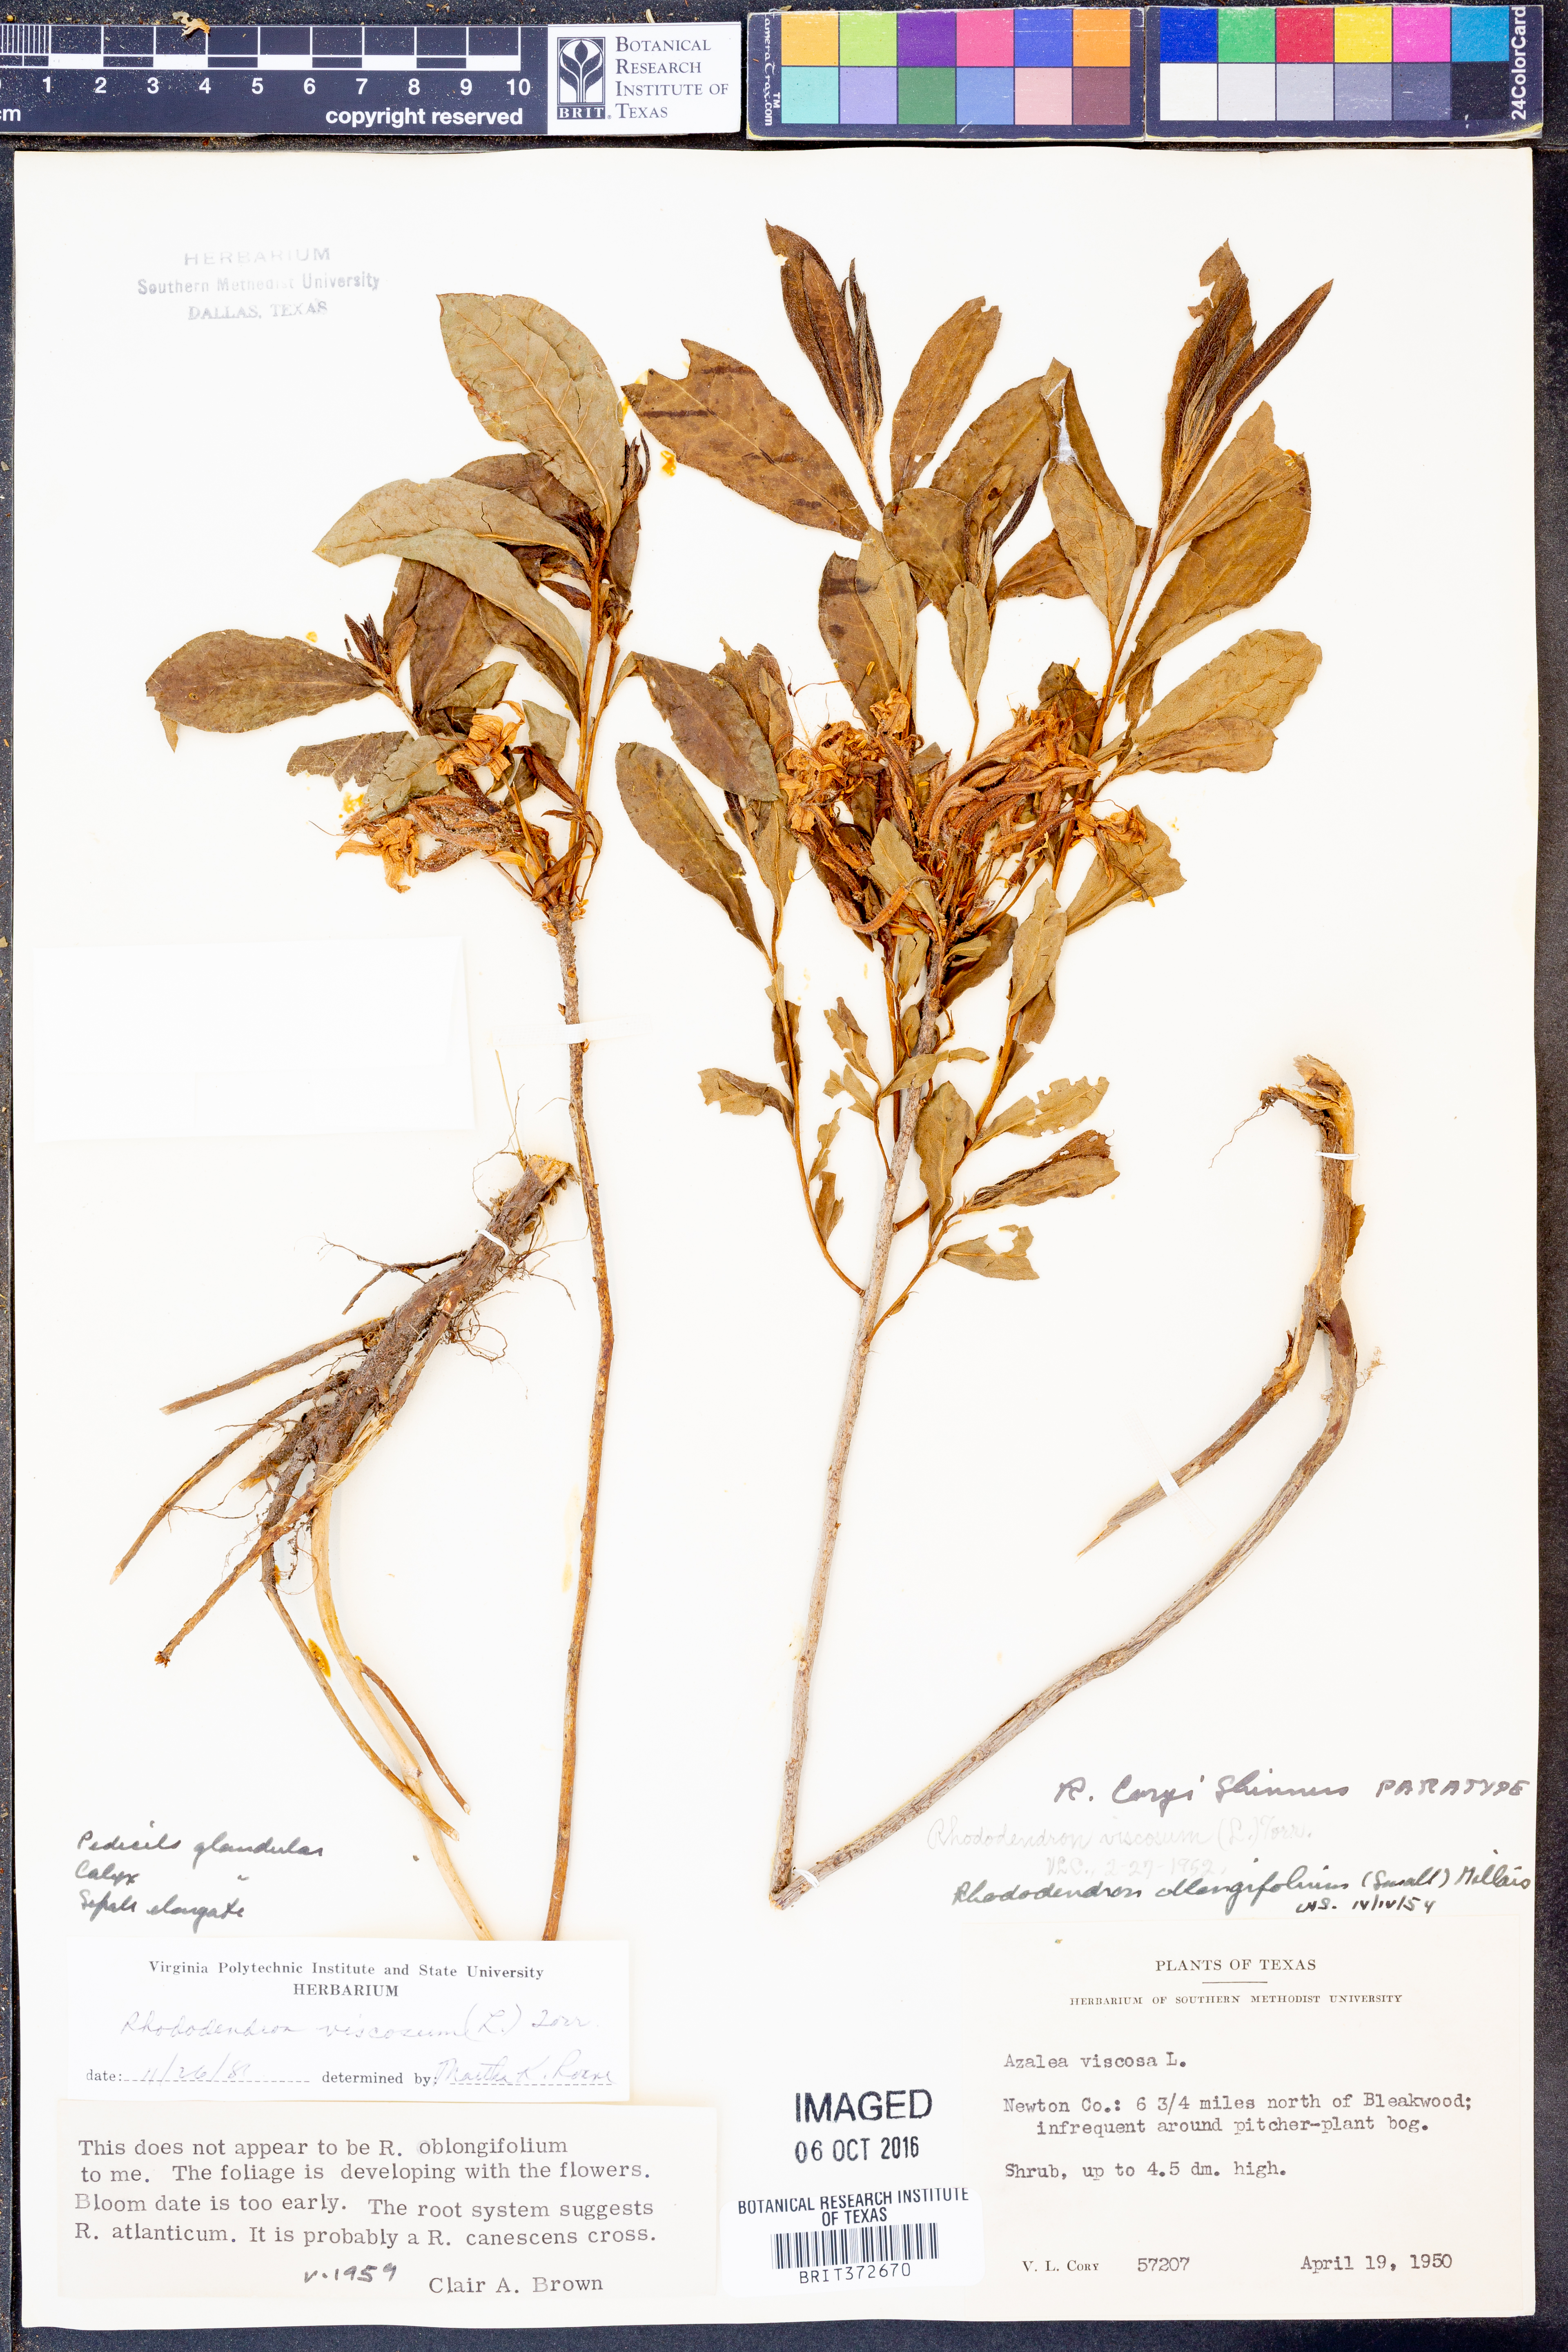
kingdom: Plantae
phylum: Tracheophyta
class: Magnoliopsida
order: Ericales
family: Ericaceae
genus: Rhododendron
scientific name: Rhododendron viscosum
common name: Clammy azalea
